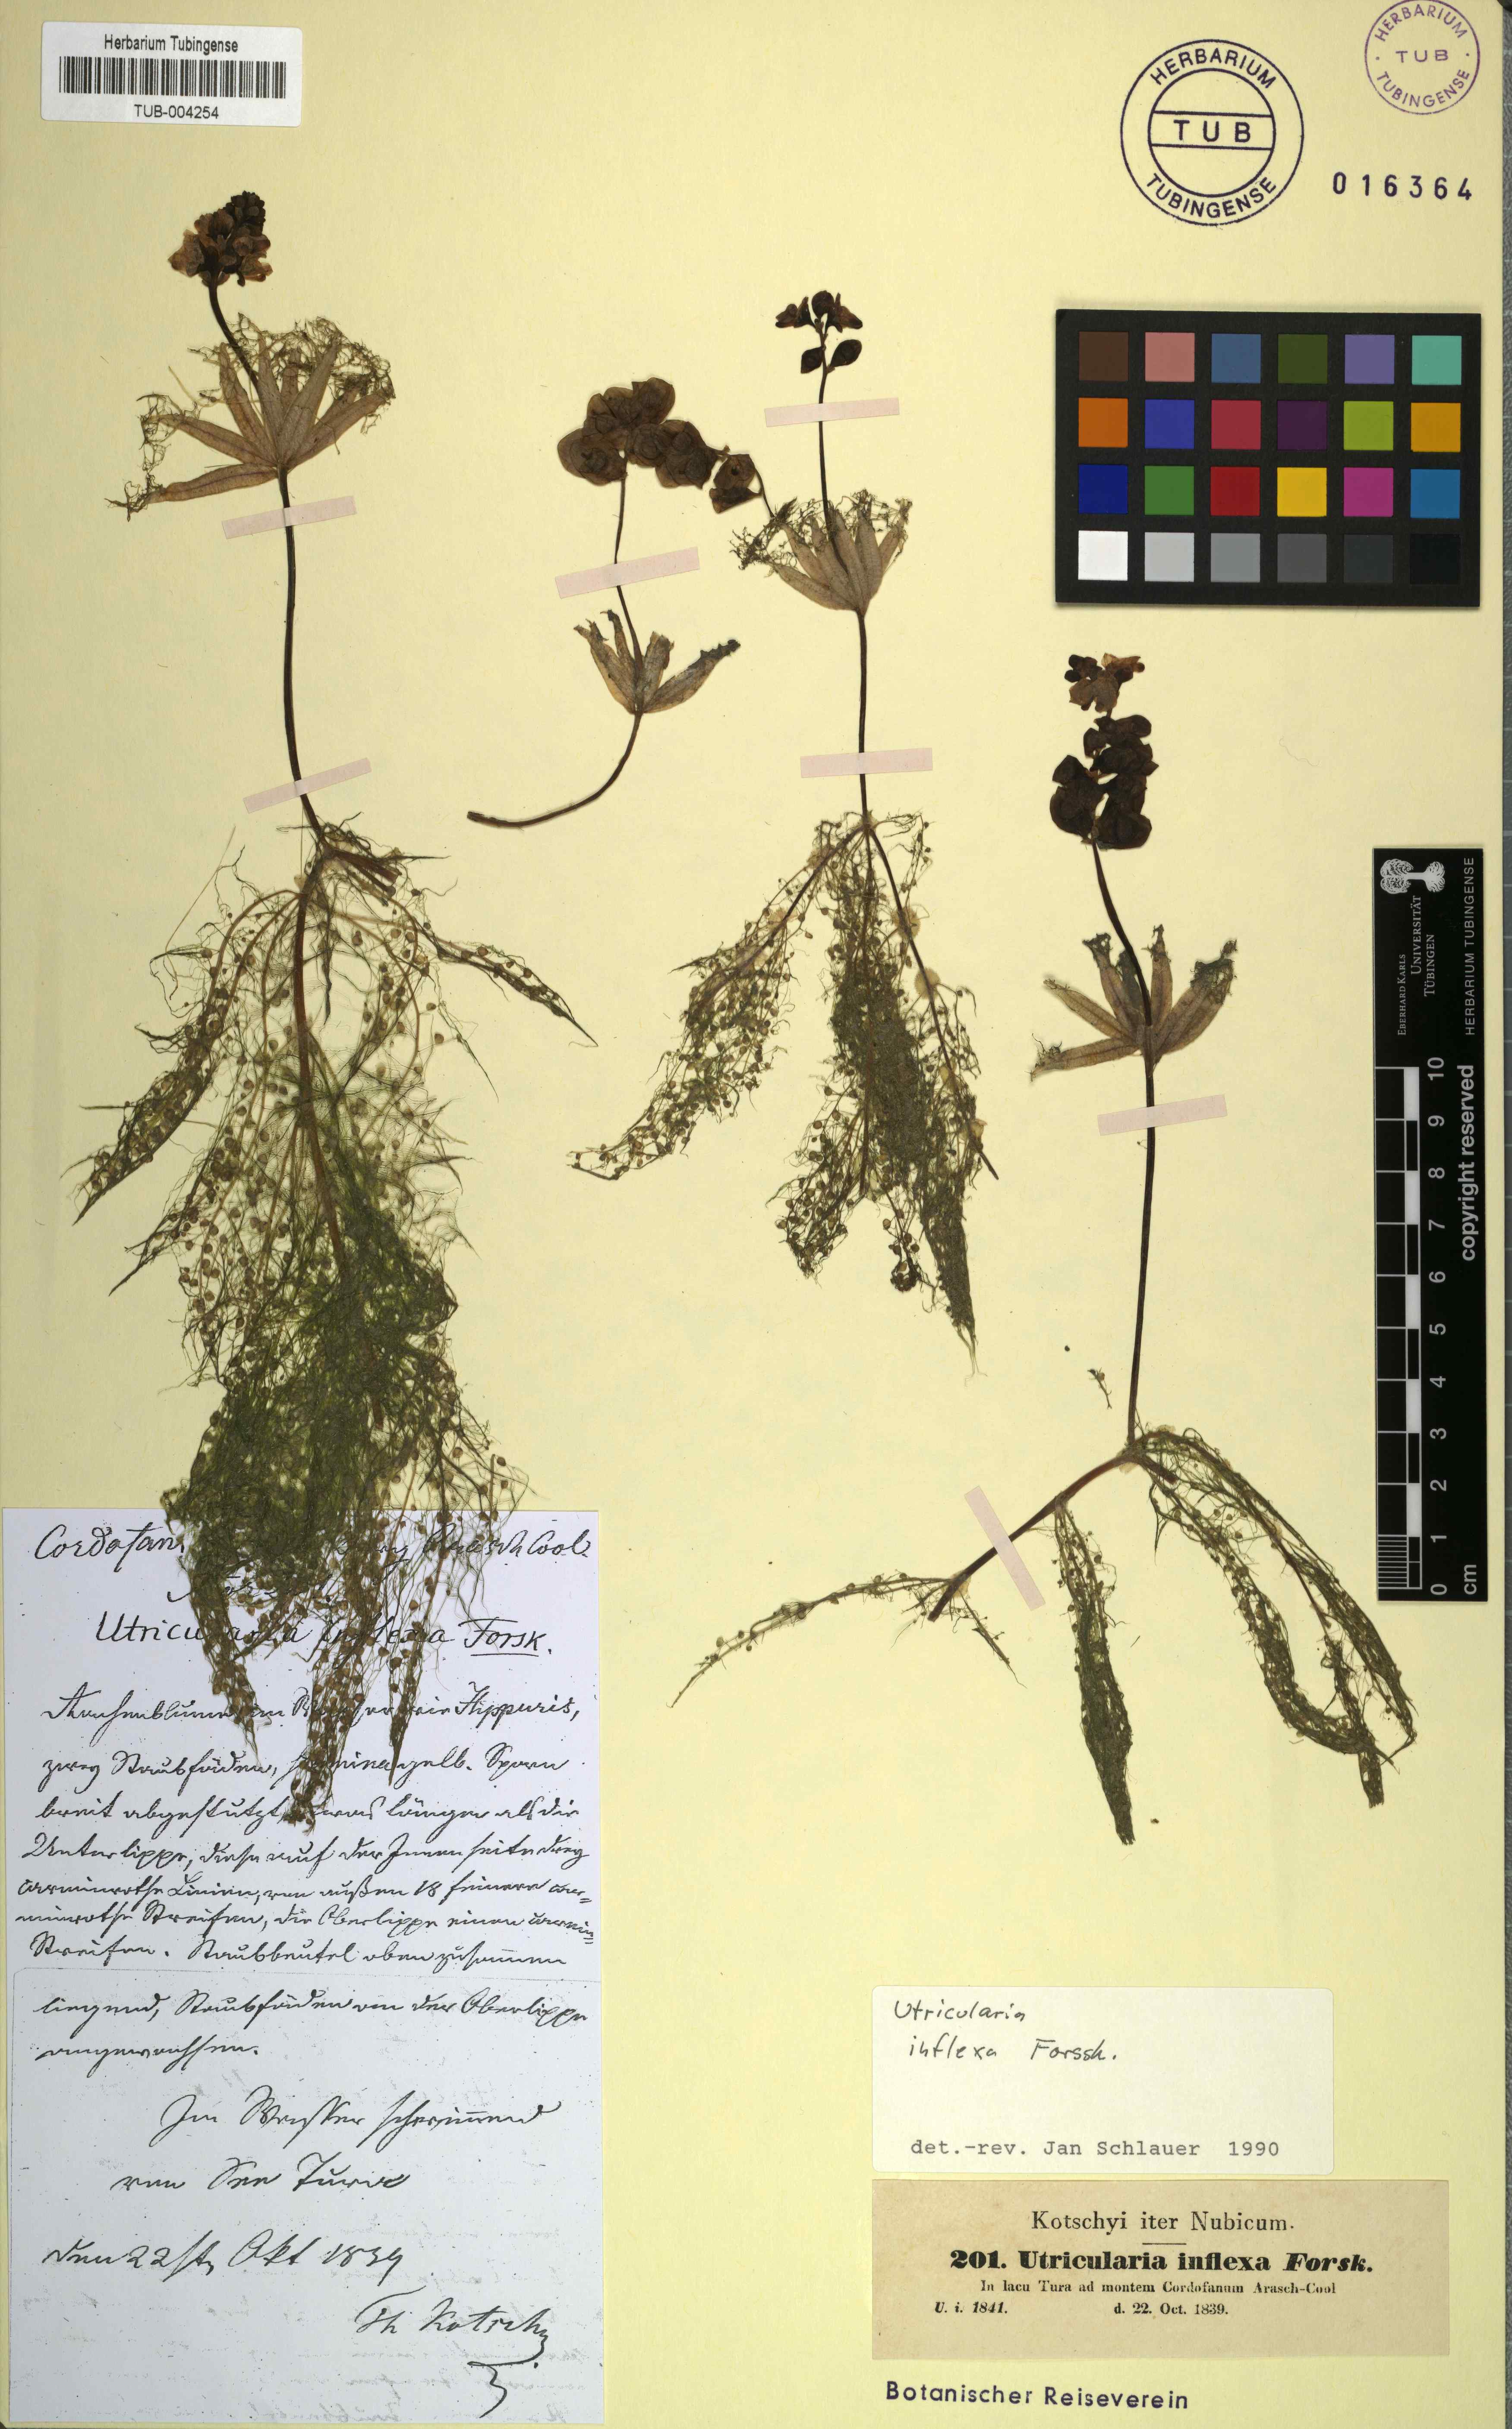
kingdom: Plantae
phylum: Tracheophyta
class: Magnoliopsida
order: Lamiales
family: Lentibulariaceae
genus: Utricularia
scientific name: Utricularia inflexa
